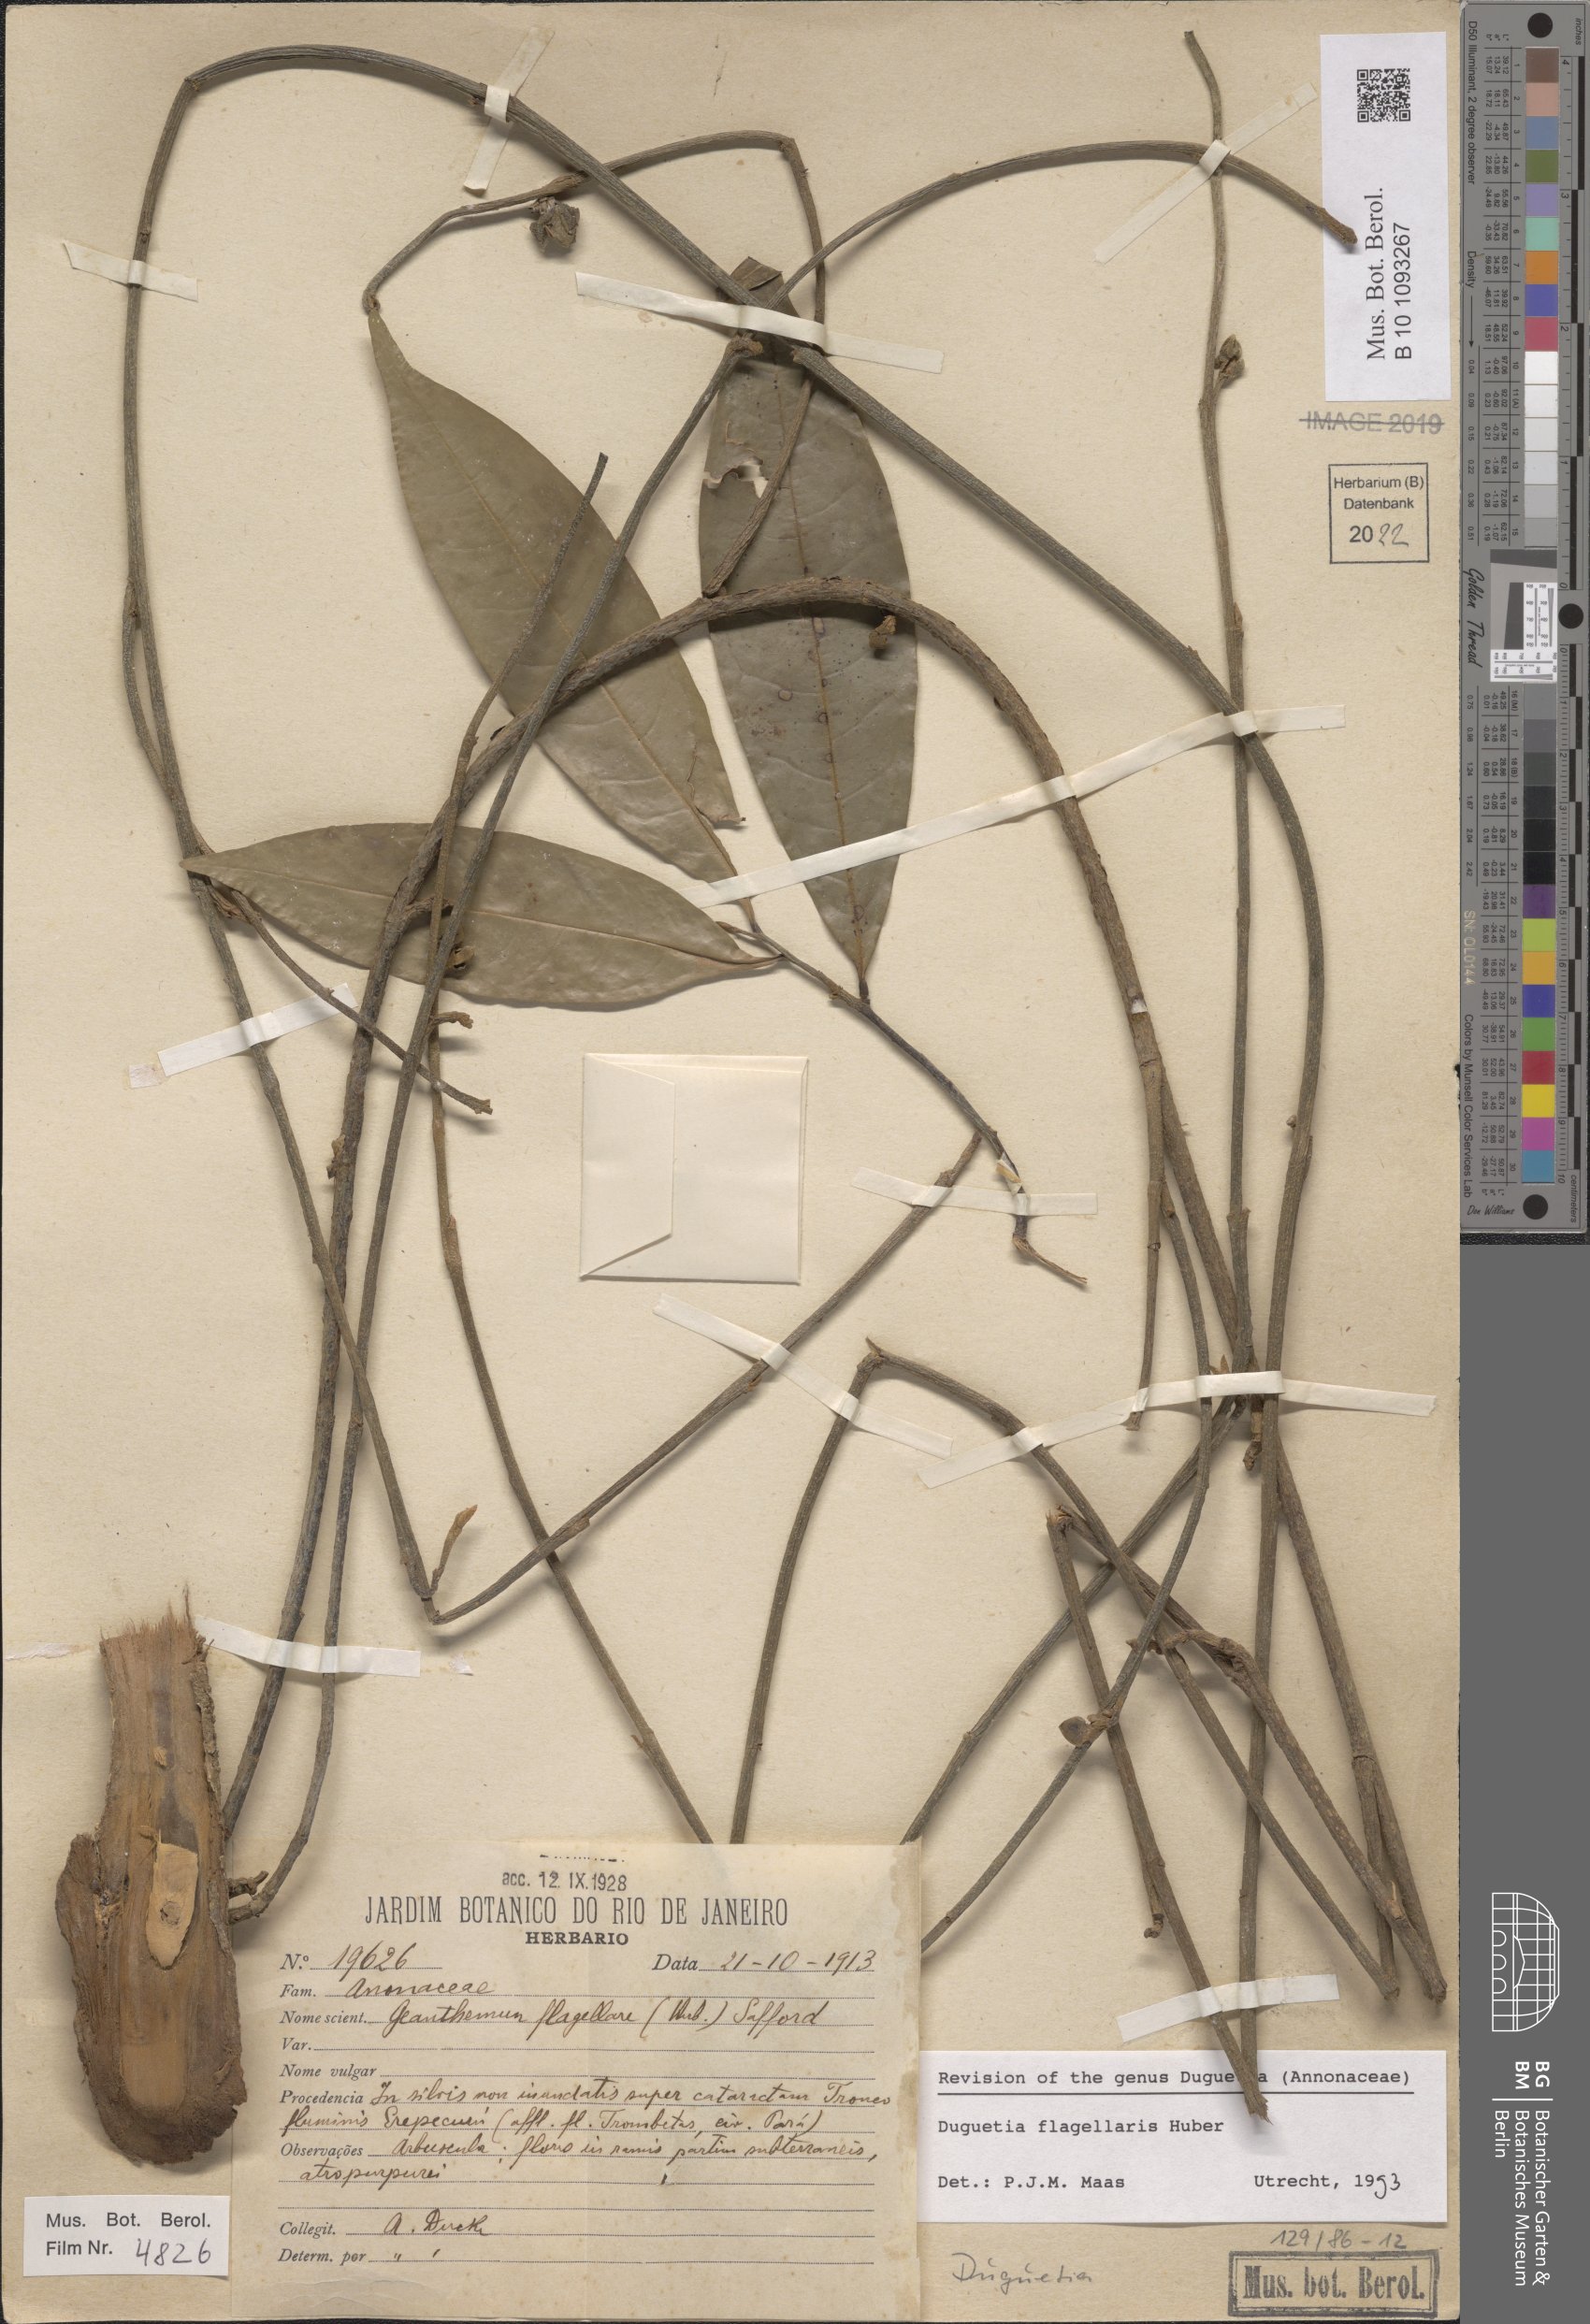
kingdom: Plantae
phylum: Tracheophyta
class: Magnoliopsida
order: Magnoliales
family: Annonaceae
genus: Duguetia
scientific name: Duguetia flagellaris
